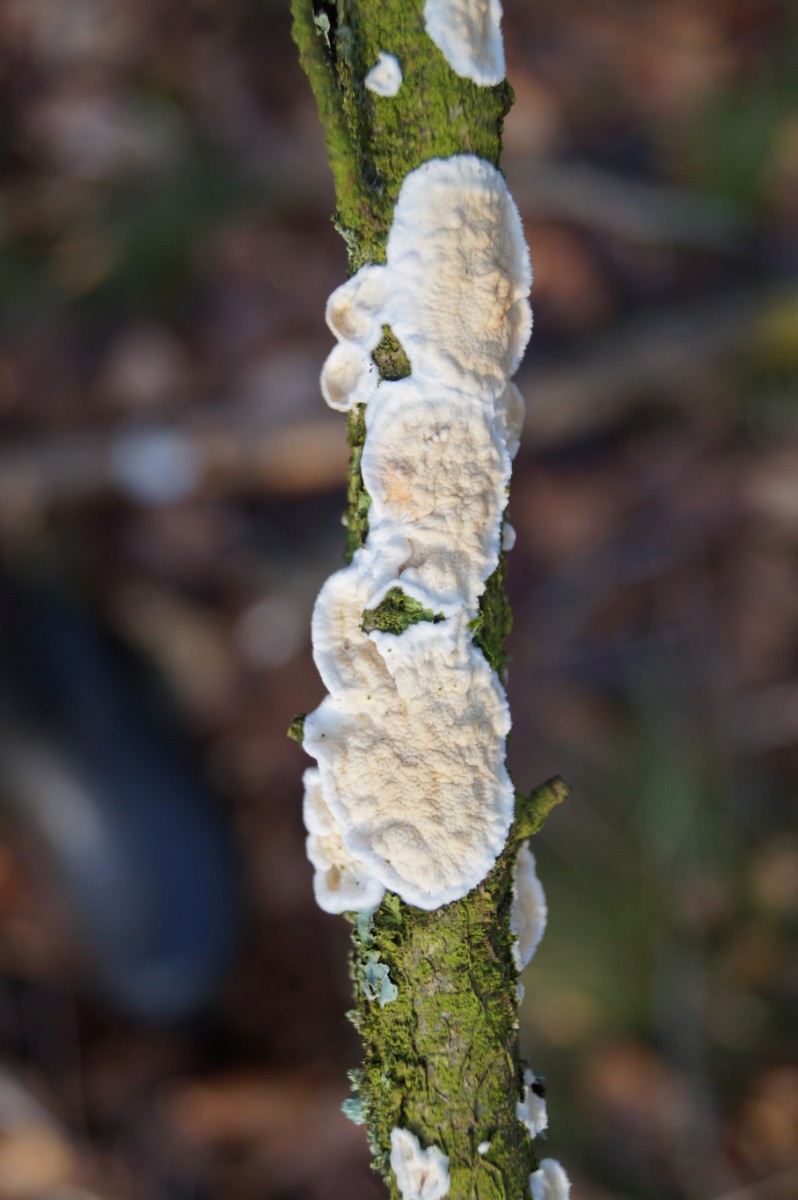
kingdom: Fungi
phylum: Basidiomycota
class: Agaricomycetes
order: Polyporales
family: Irpicaceae
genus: Byssomerulius
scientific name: Byssomerulius corium
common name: læder-åresvamp
